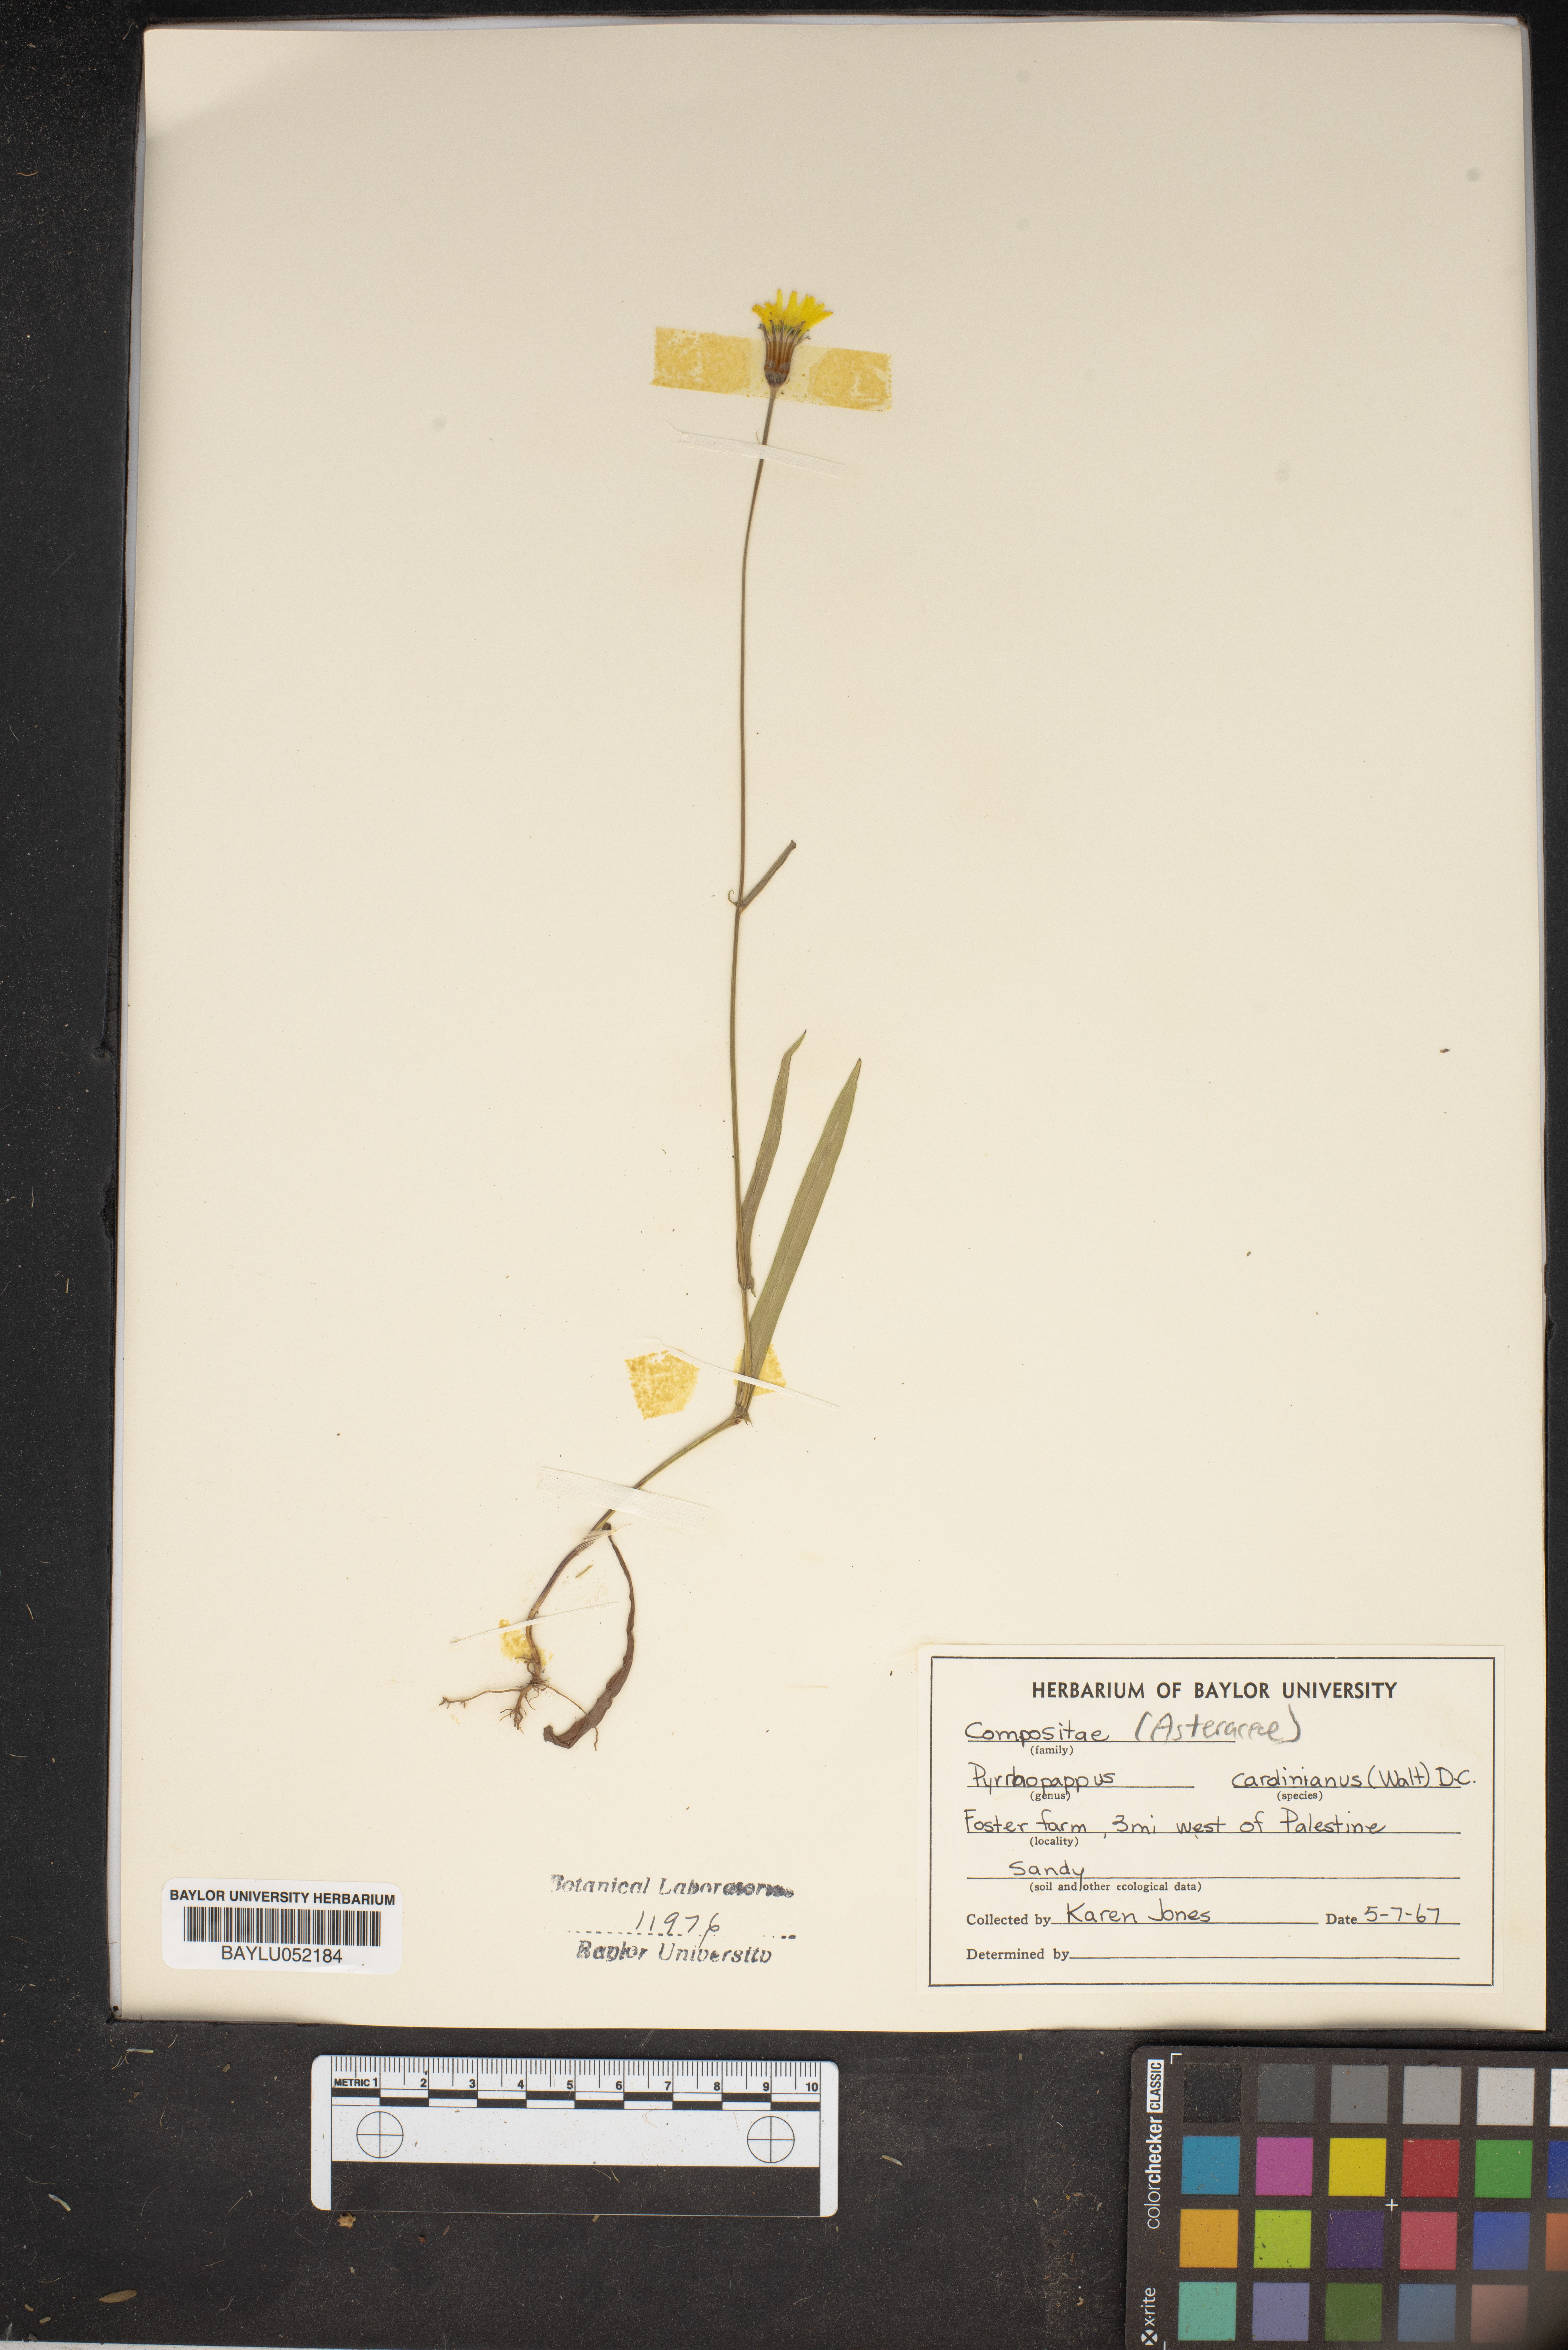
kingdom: Plantae
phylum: Tracheophyta
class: Magnoliopsida
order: Asterales
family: Asteraceae
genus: Pyrrhopappus
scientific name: Pyrrhopappus carolinianus
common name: Carolina desert-chicory
